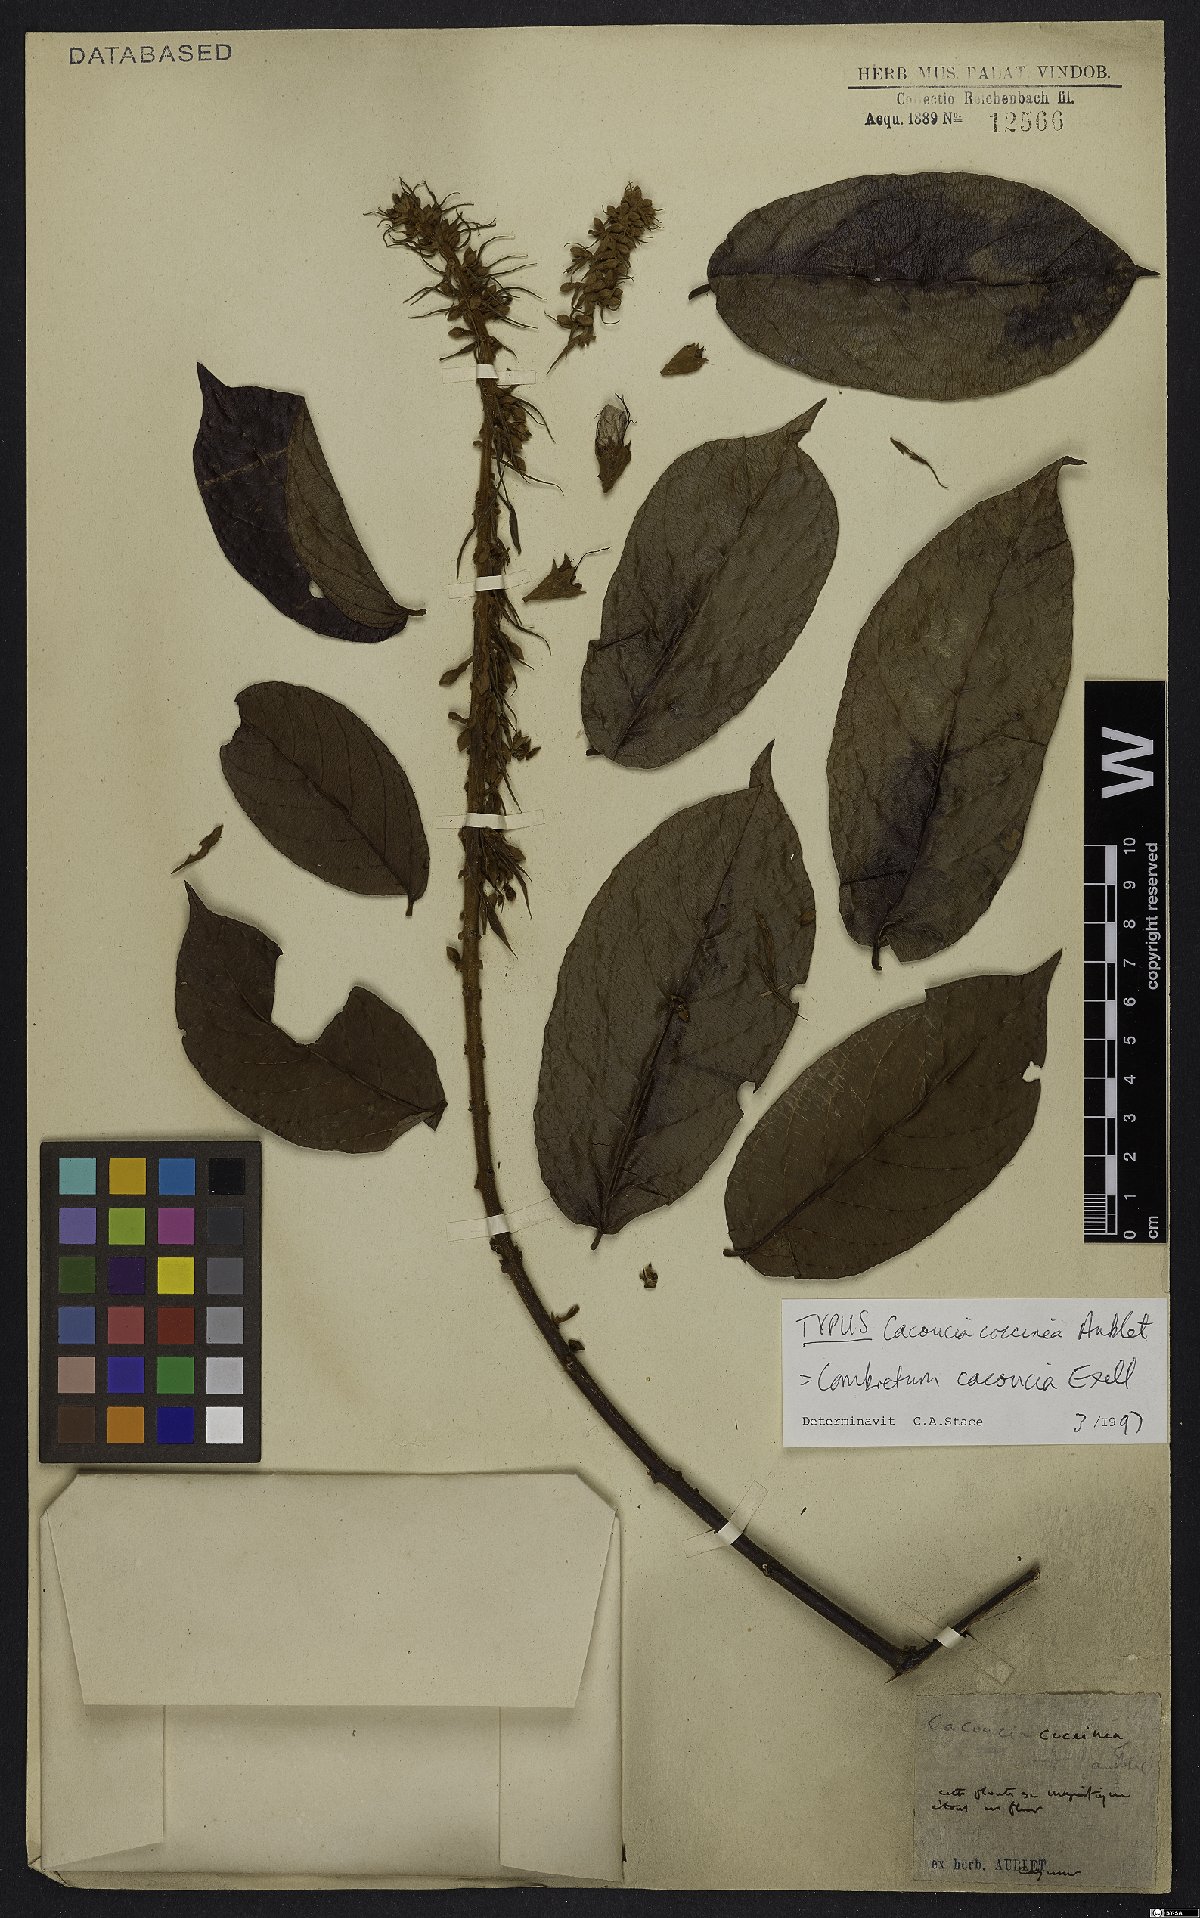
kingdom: Plantae
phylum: Tracheophyta
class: Magnoliopsida
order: Myrtales
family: Combretaceae
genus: Combretum
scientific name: Combretum cacoucia
